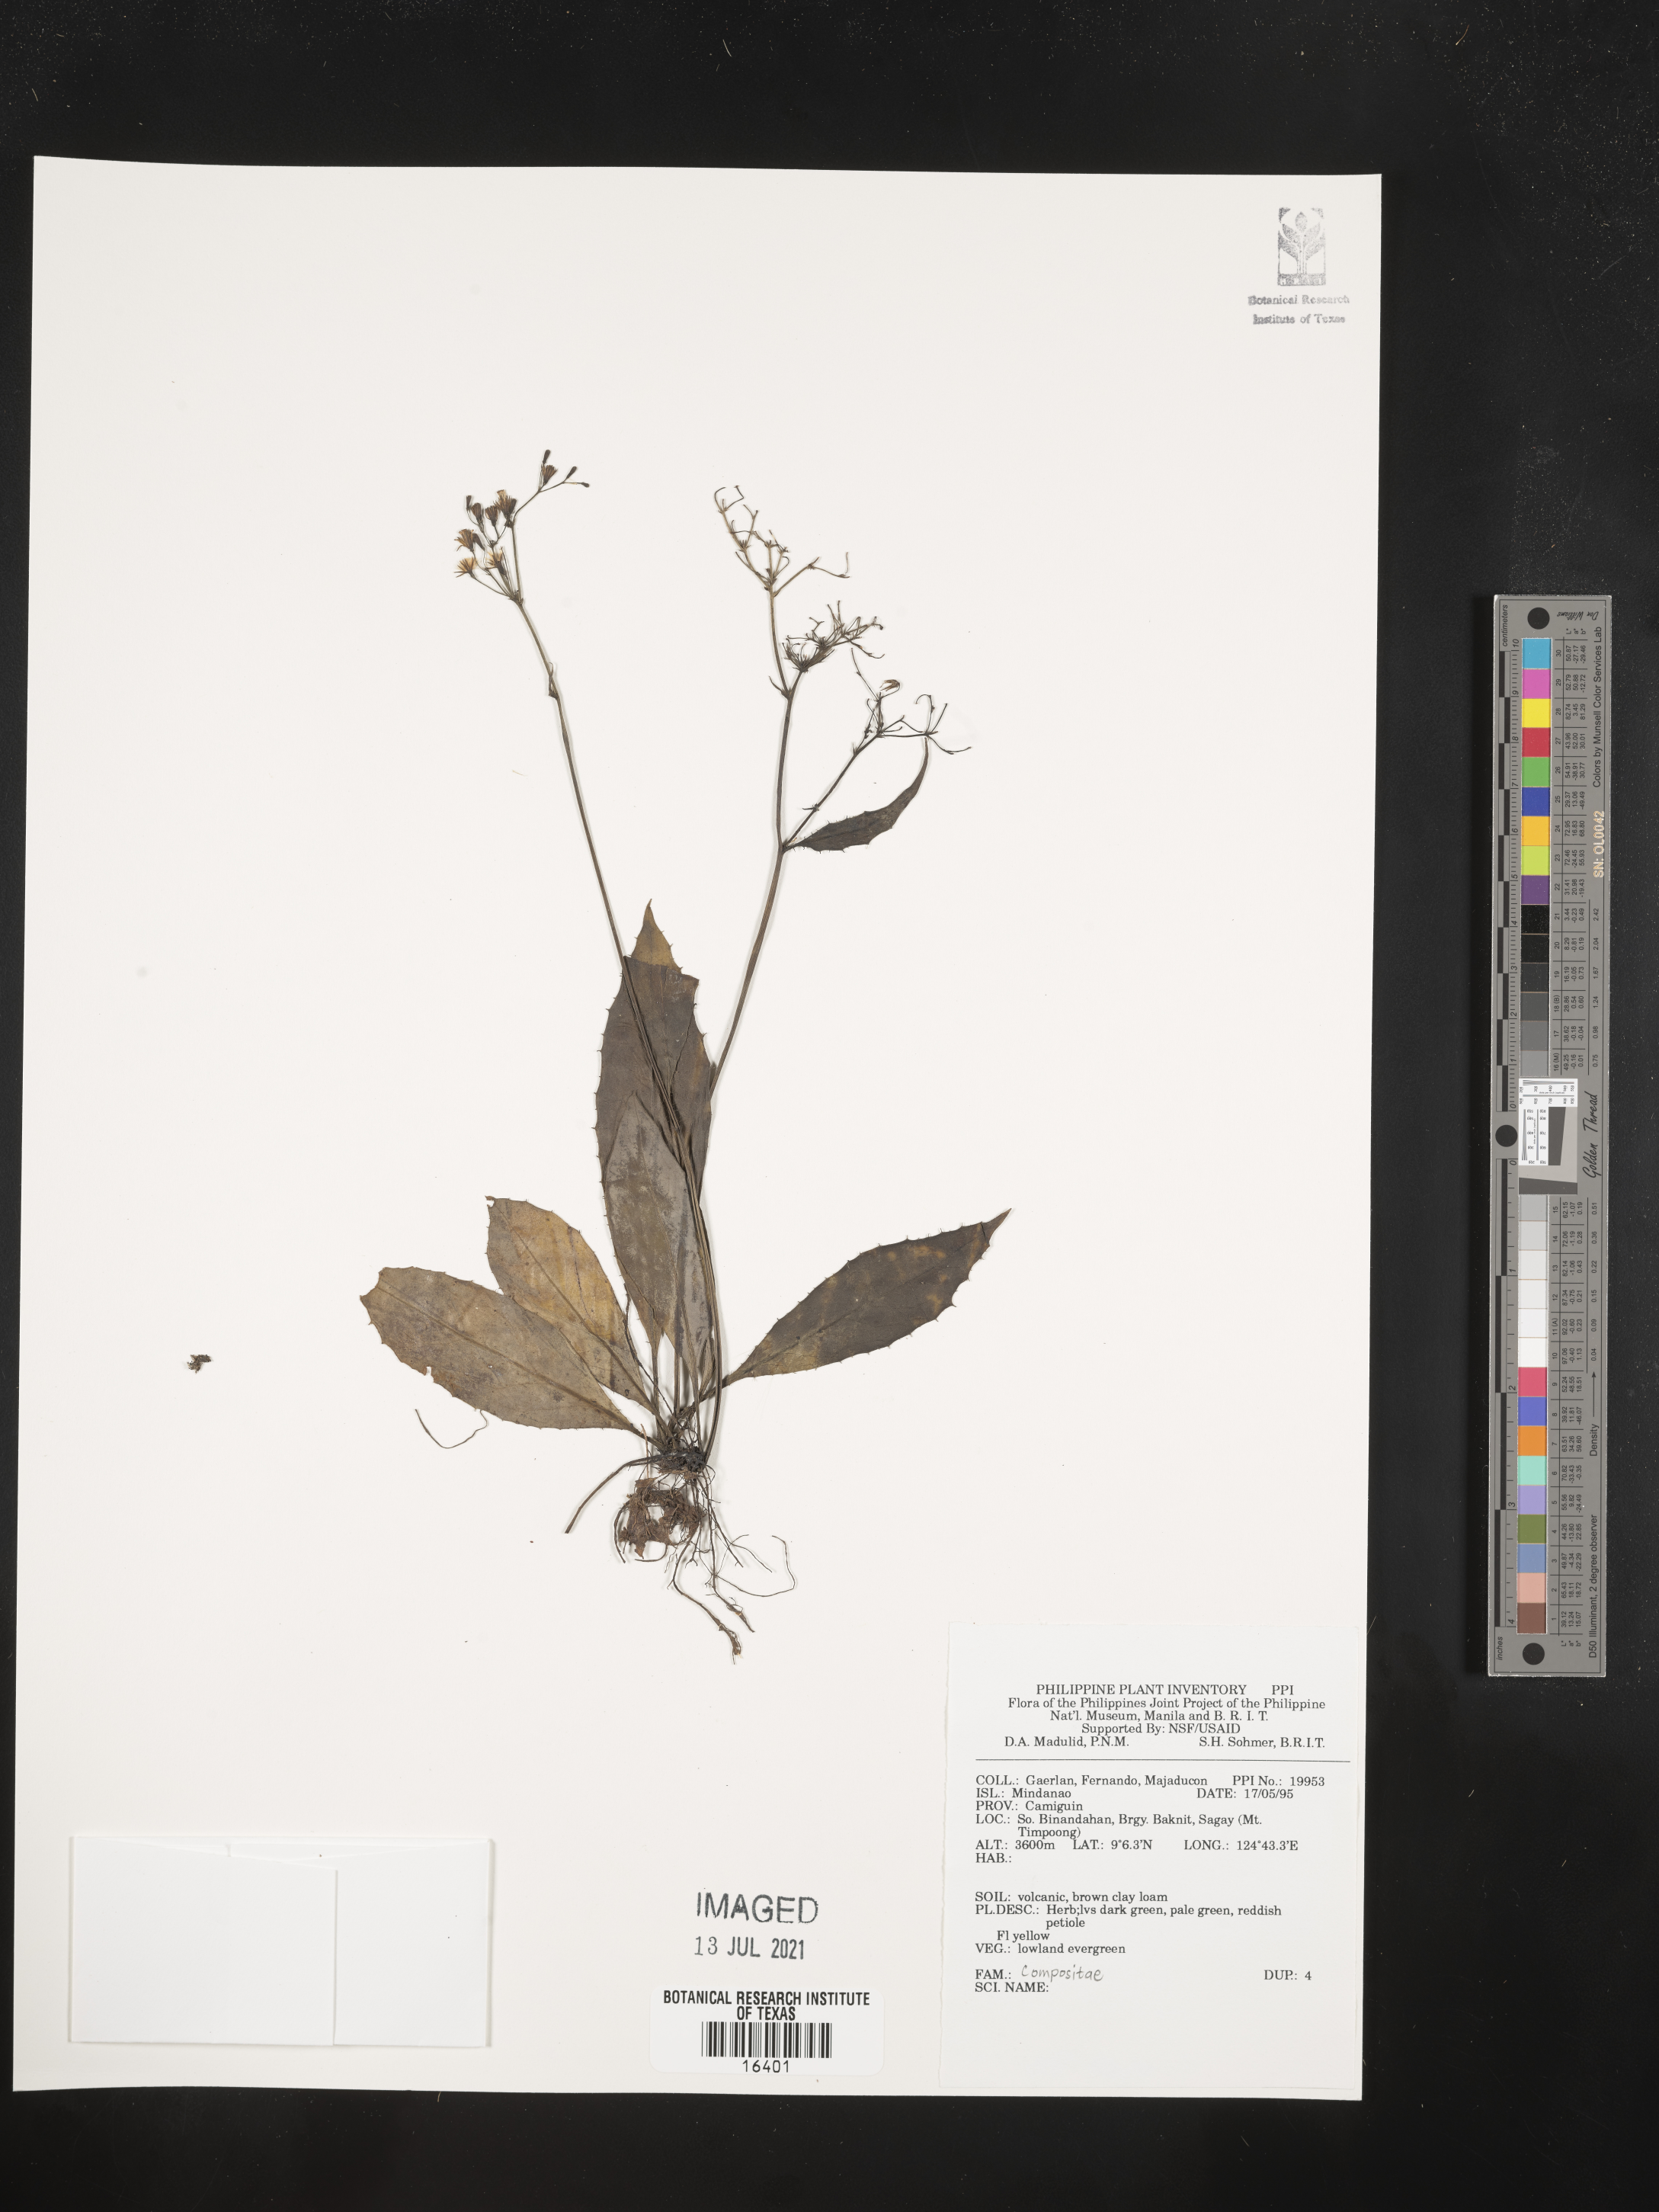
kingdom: Plantae
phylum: Tracheophyta
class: Magnoliopsida
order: Asterales
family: Asteraceae
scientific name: Asteraceae
